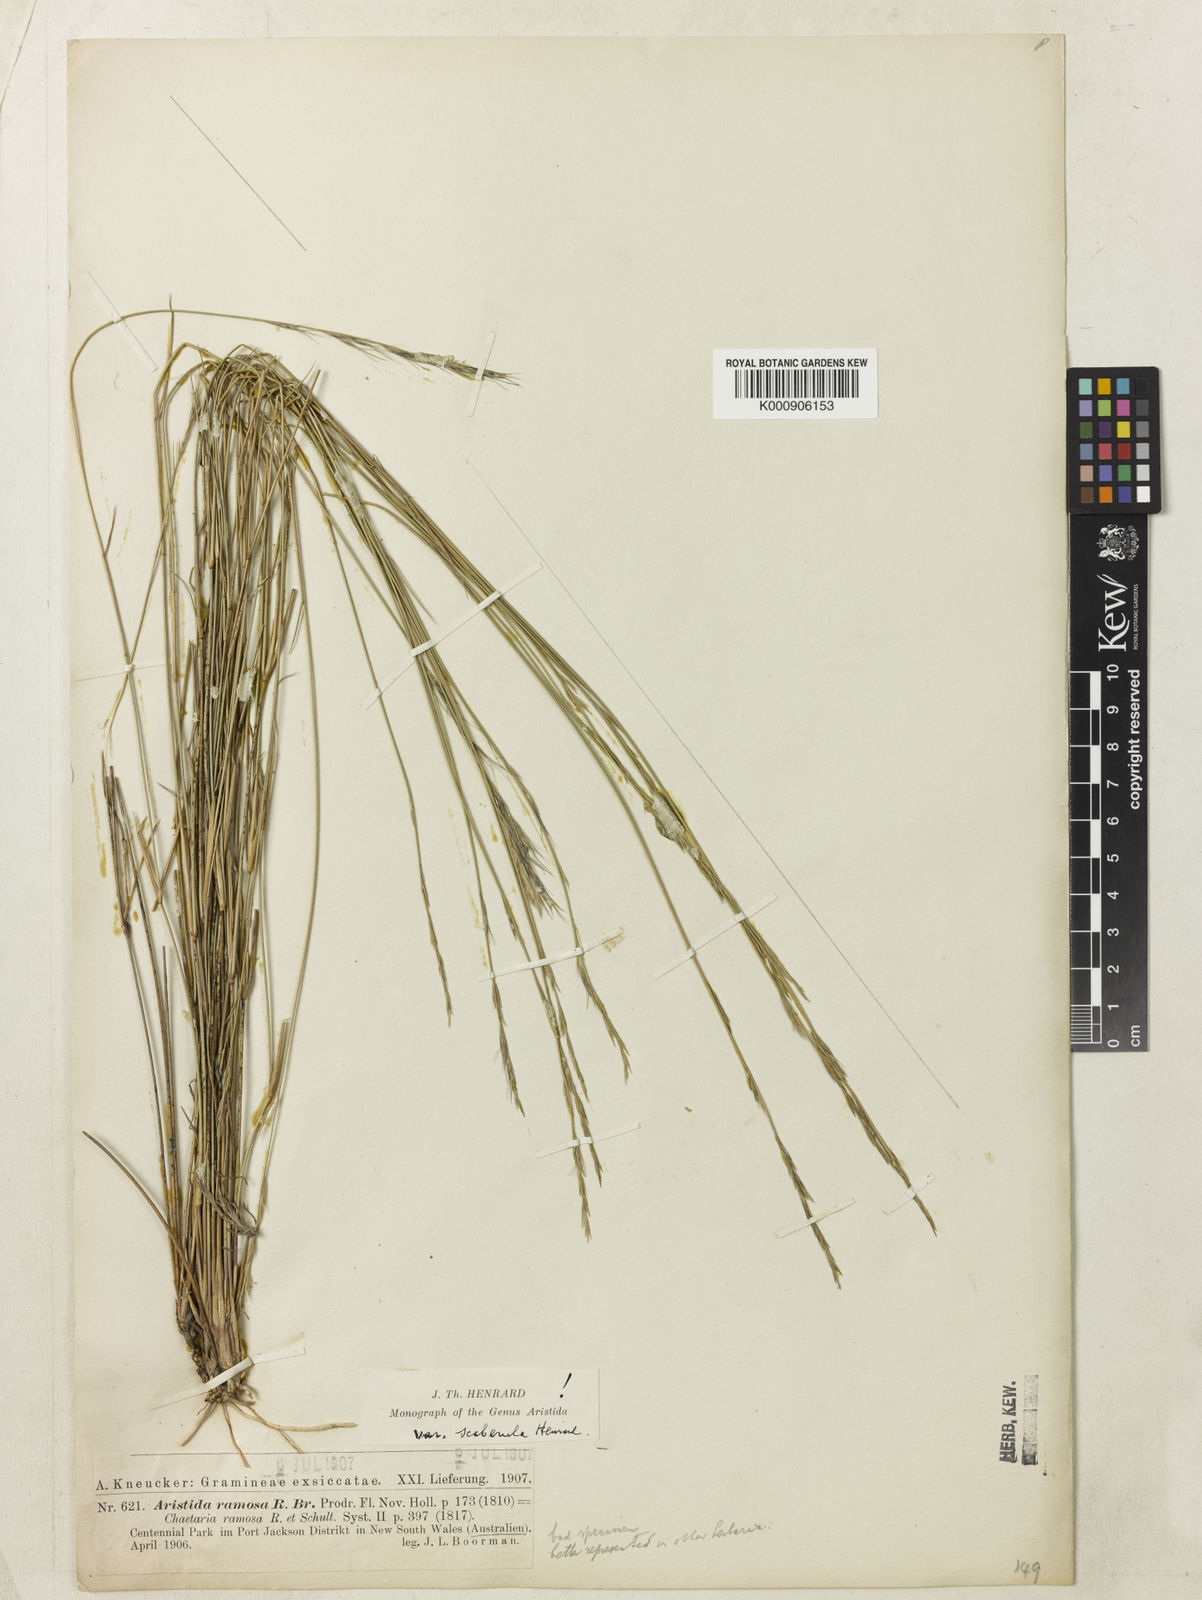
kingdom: Plantae
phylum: Tracheophyta
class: Liliopsida
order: Poales
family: Poaceae
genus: Aristida
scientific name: Aristida ramosa
